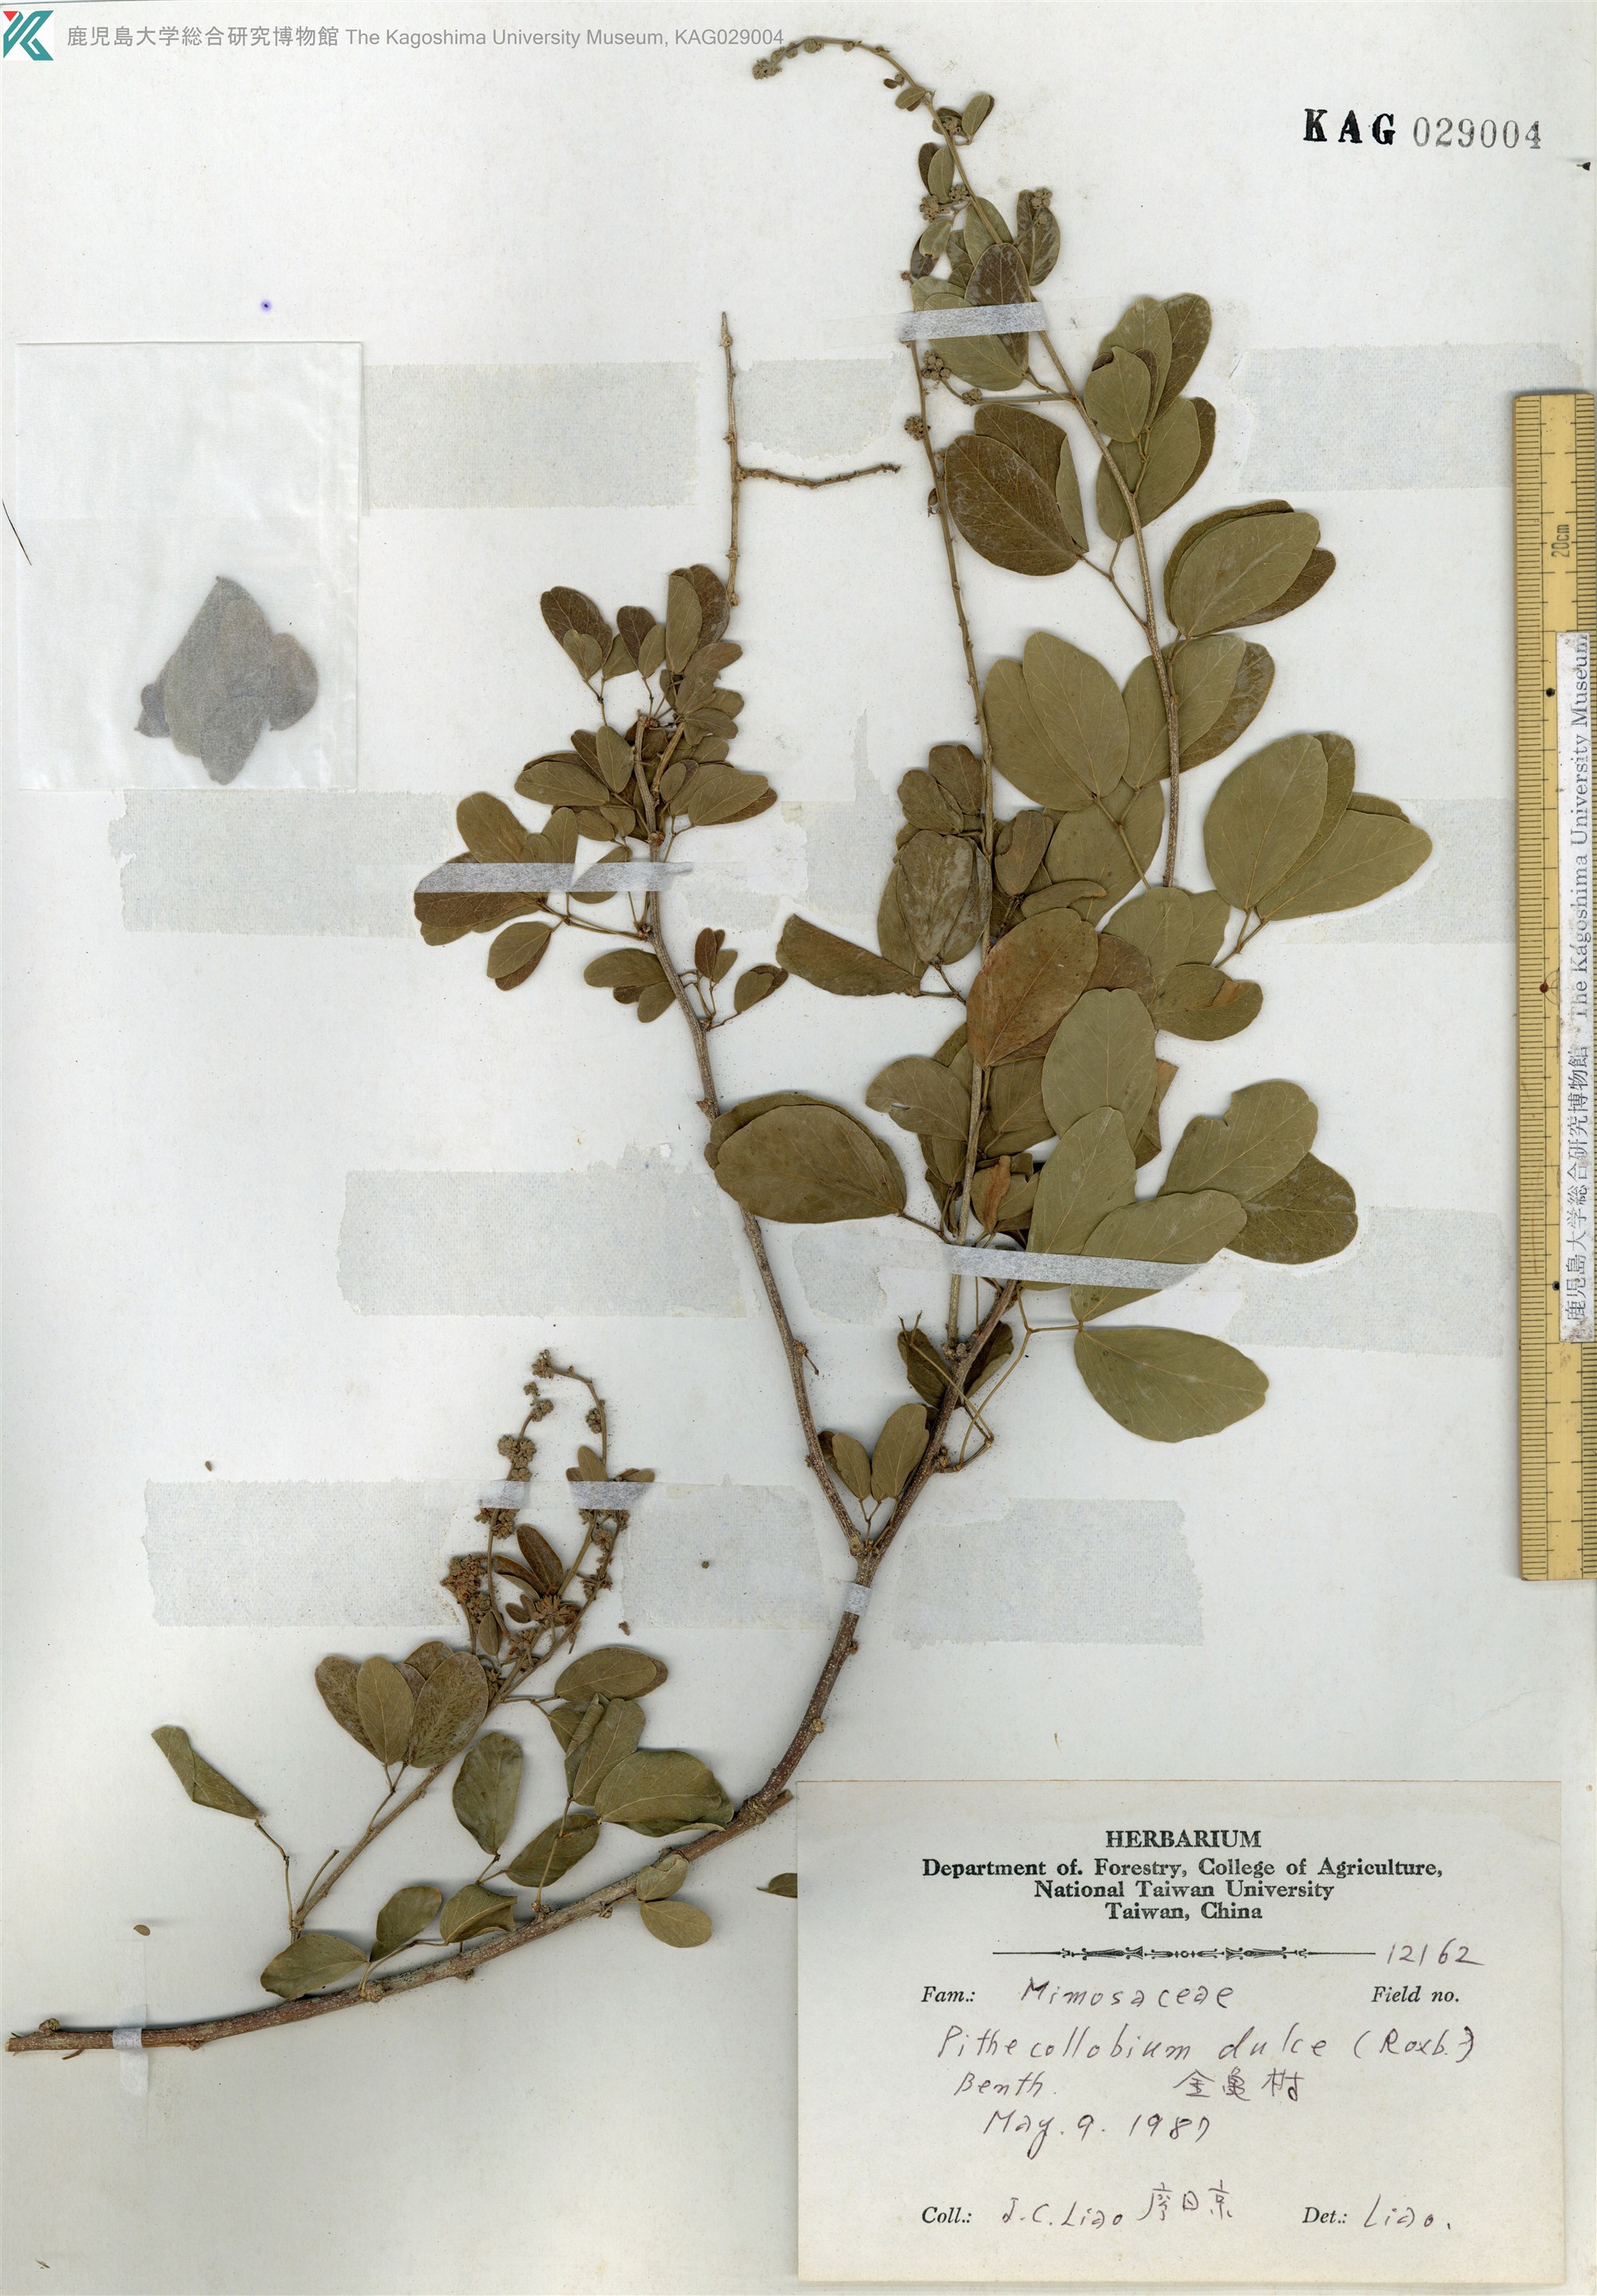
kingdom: Plantae
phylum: Tracheophyta
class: Magnoliopsida
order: Fabales
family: Fabaceae
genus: Pithecellobium
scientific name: Pithecellobium dulce
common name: Monkeypod
